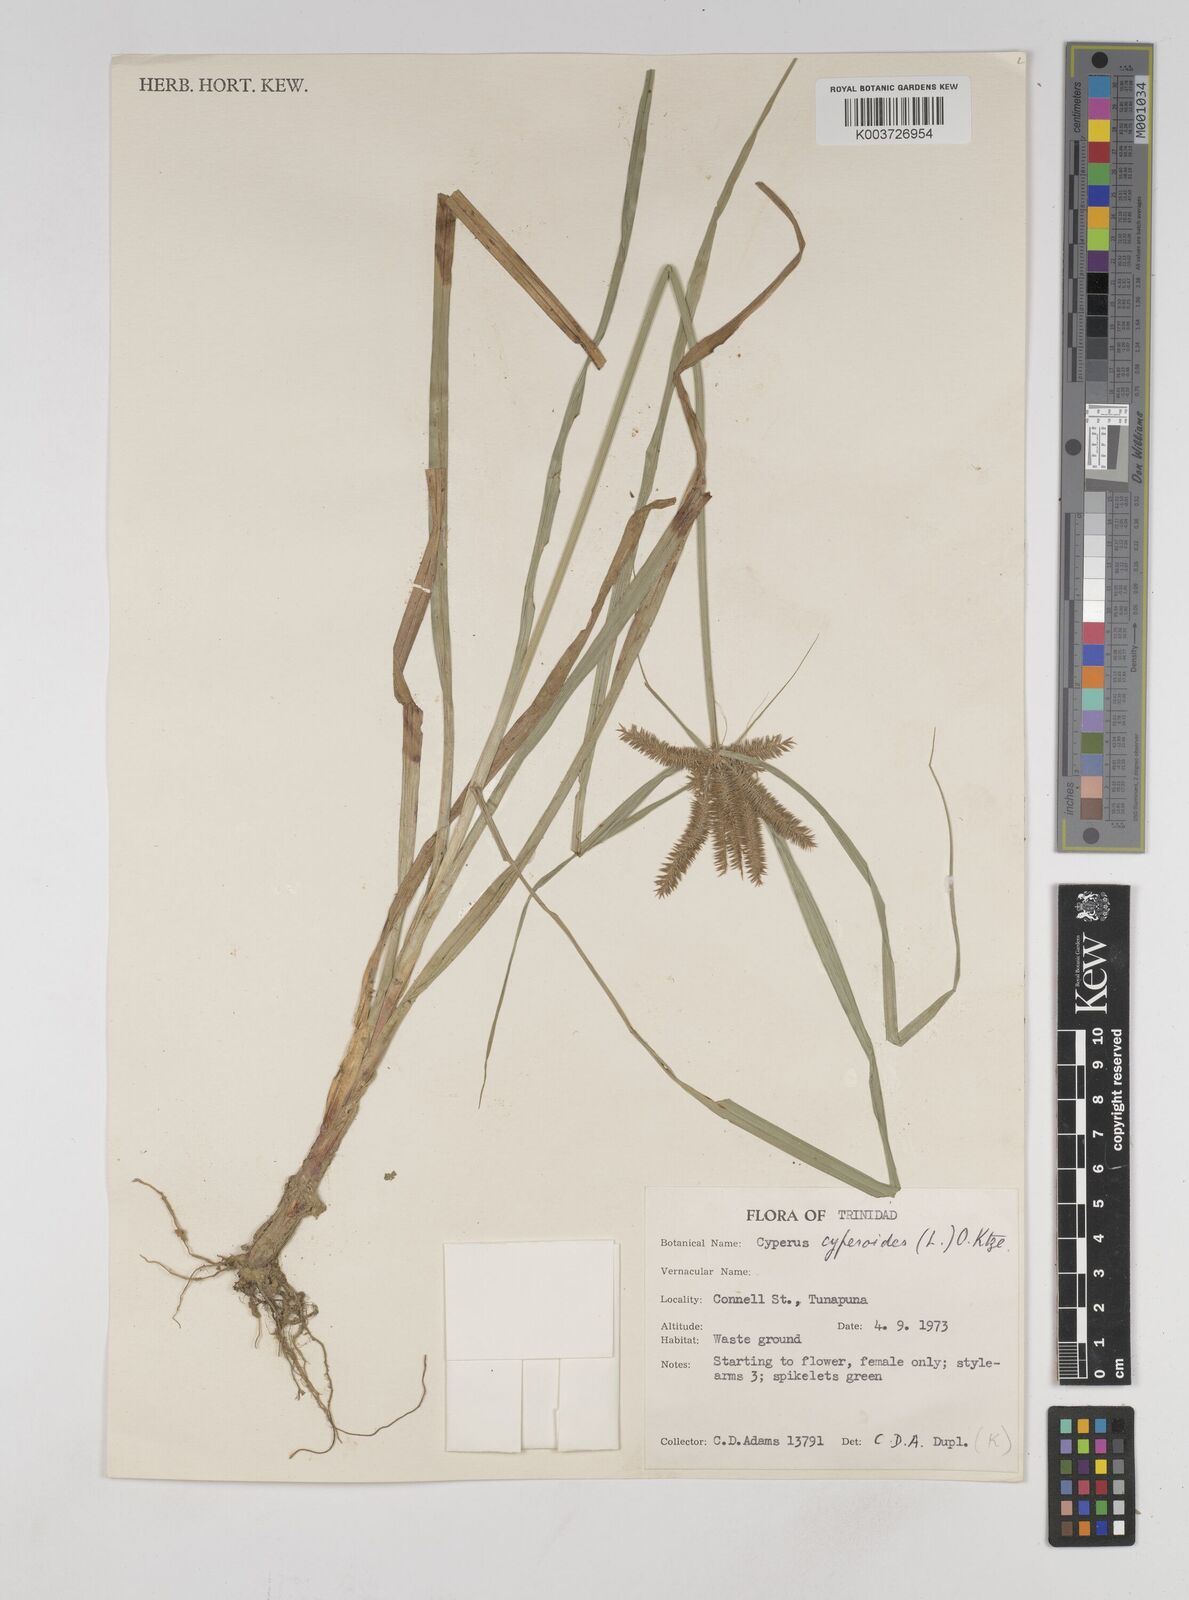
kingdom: Plantae
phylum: Tracheophyta
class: Liliopsida
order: Poales
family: Cyperaceae
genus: Cyperus
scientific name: Cyperus cyperoides
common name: Pacific island flat sedge
